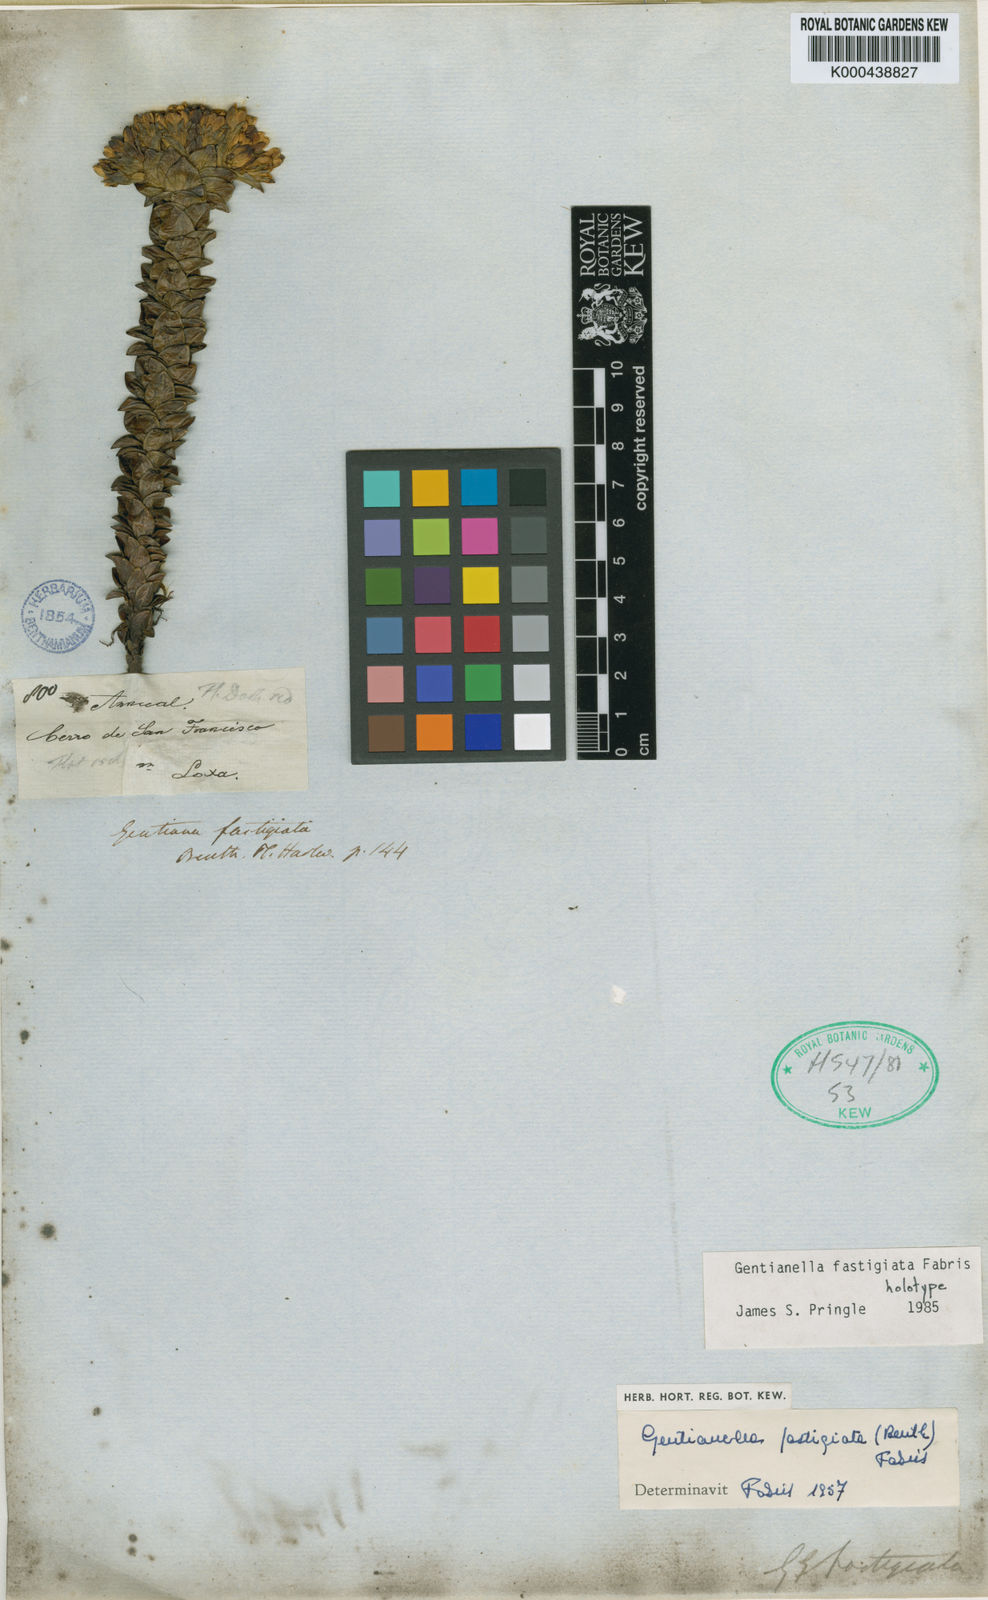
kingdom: Plantae
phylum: Tracheophyta
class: Magnoliopsida
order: Gentianales
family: Gentianaceae
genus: Gentianella
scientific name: Gentianella fastigiata
